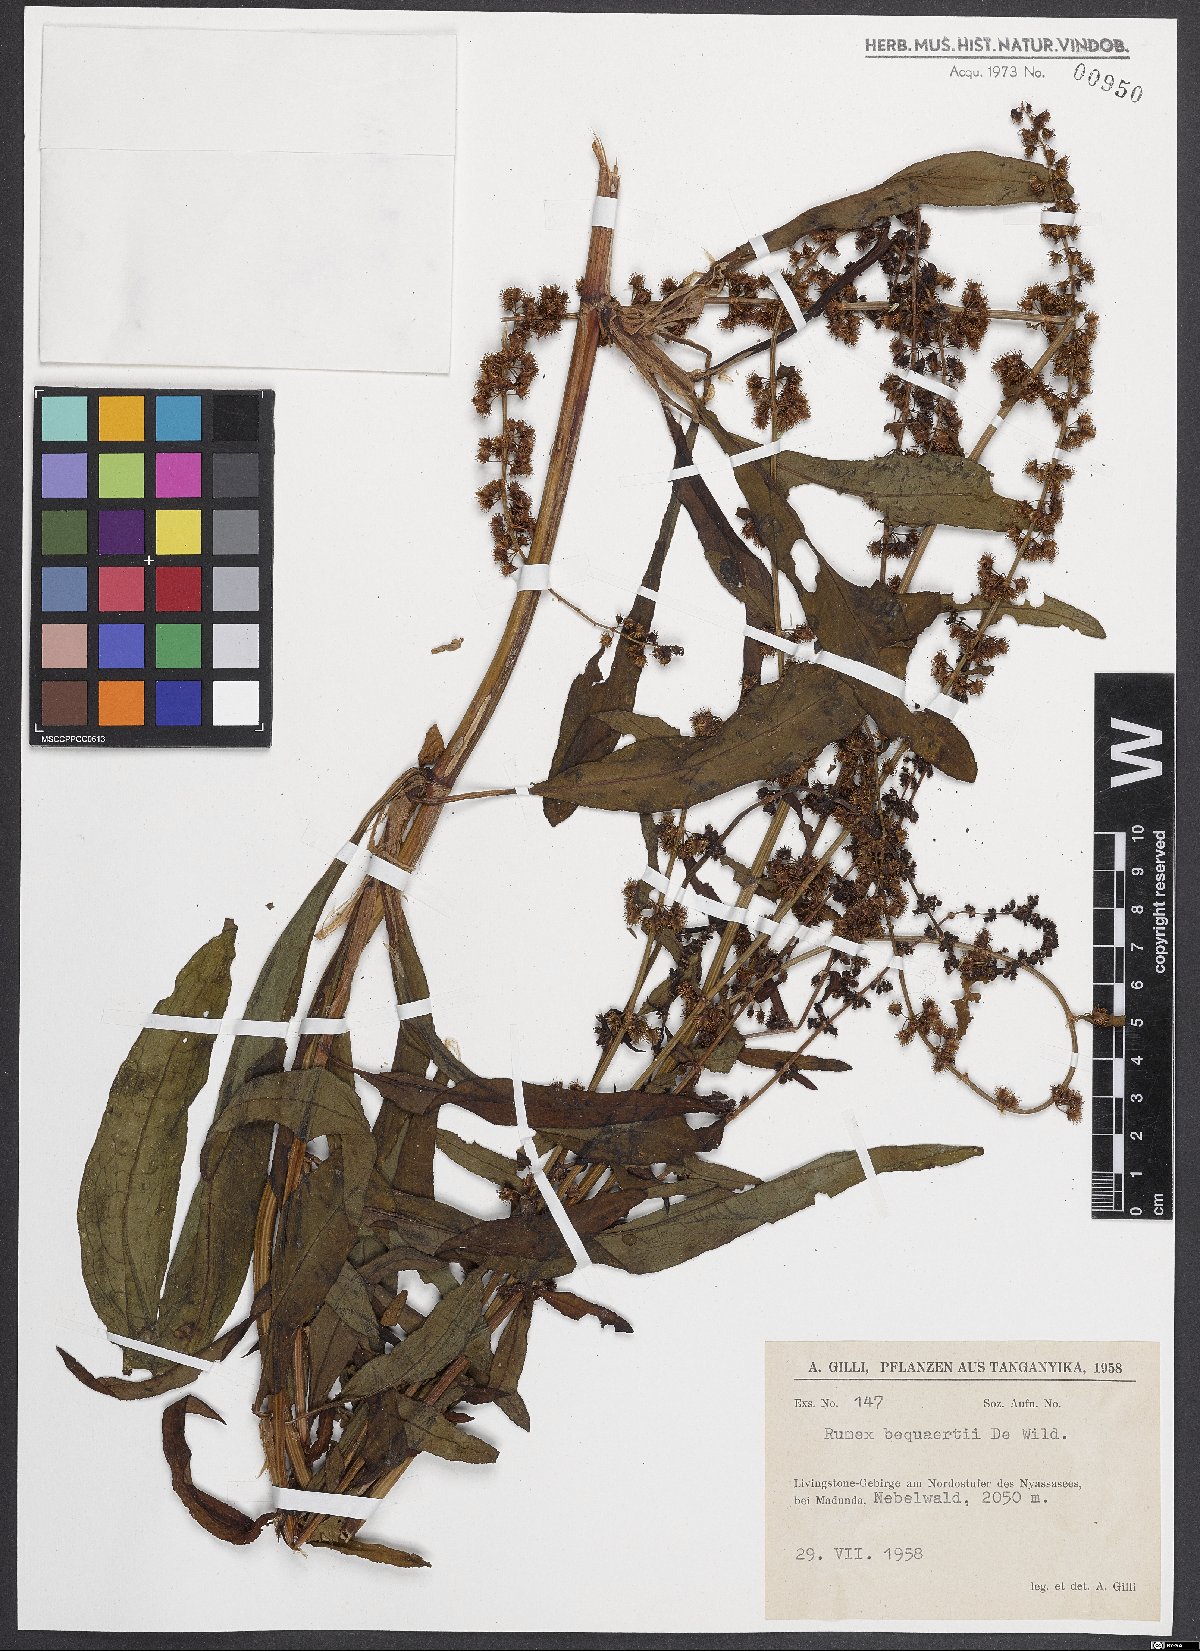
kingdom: Plantae
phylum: Tracheophyta
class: Magnoliopsida
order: Caryophyllales
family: Polygonaceae
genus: Rumex
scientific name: Rumex bequaertii
